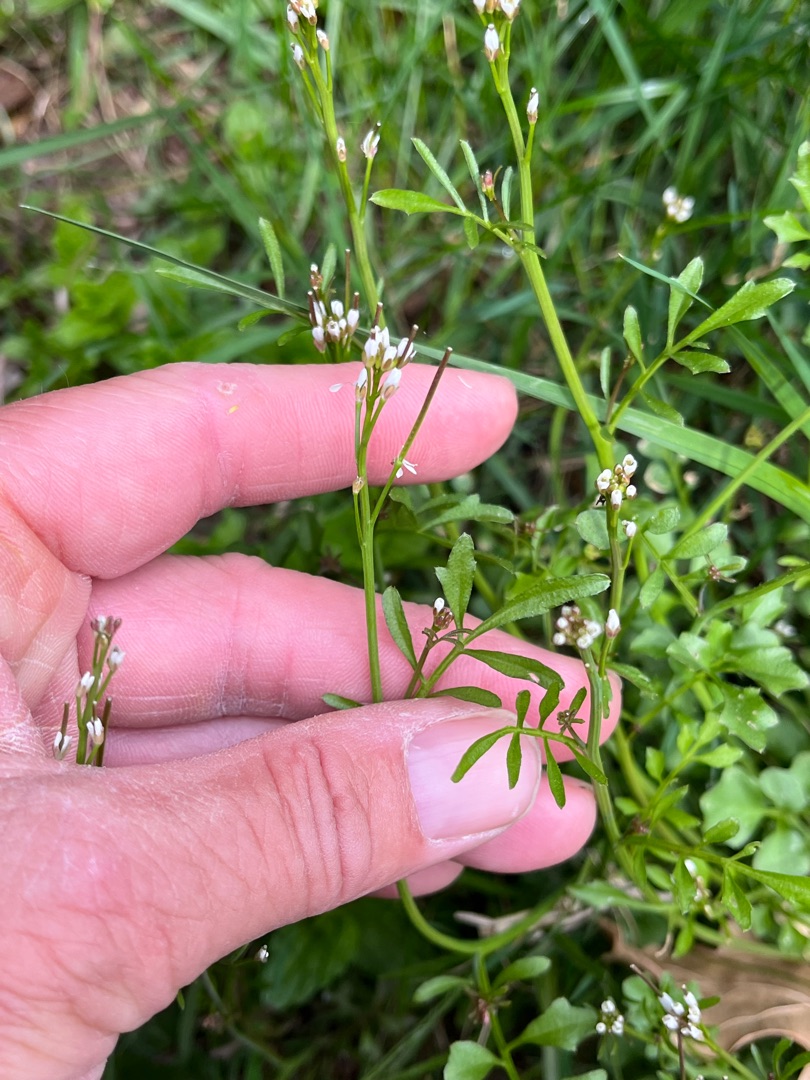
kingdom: Plantae
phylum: Tracheophyta
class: Magnoliopsida
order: Brassicales
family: Brassicaceae
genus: Cardamine
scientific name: Cardamine flexuosa
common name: Skov-springklap
